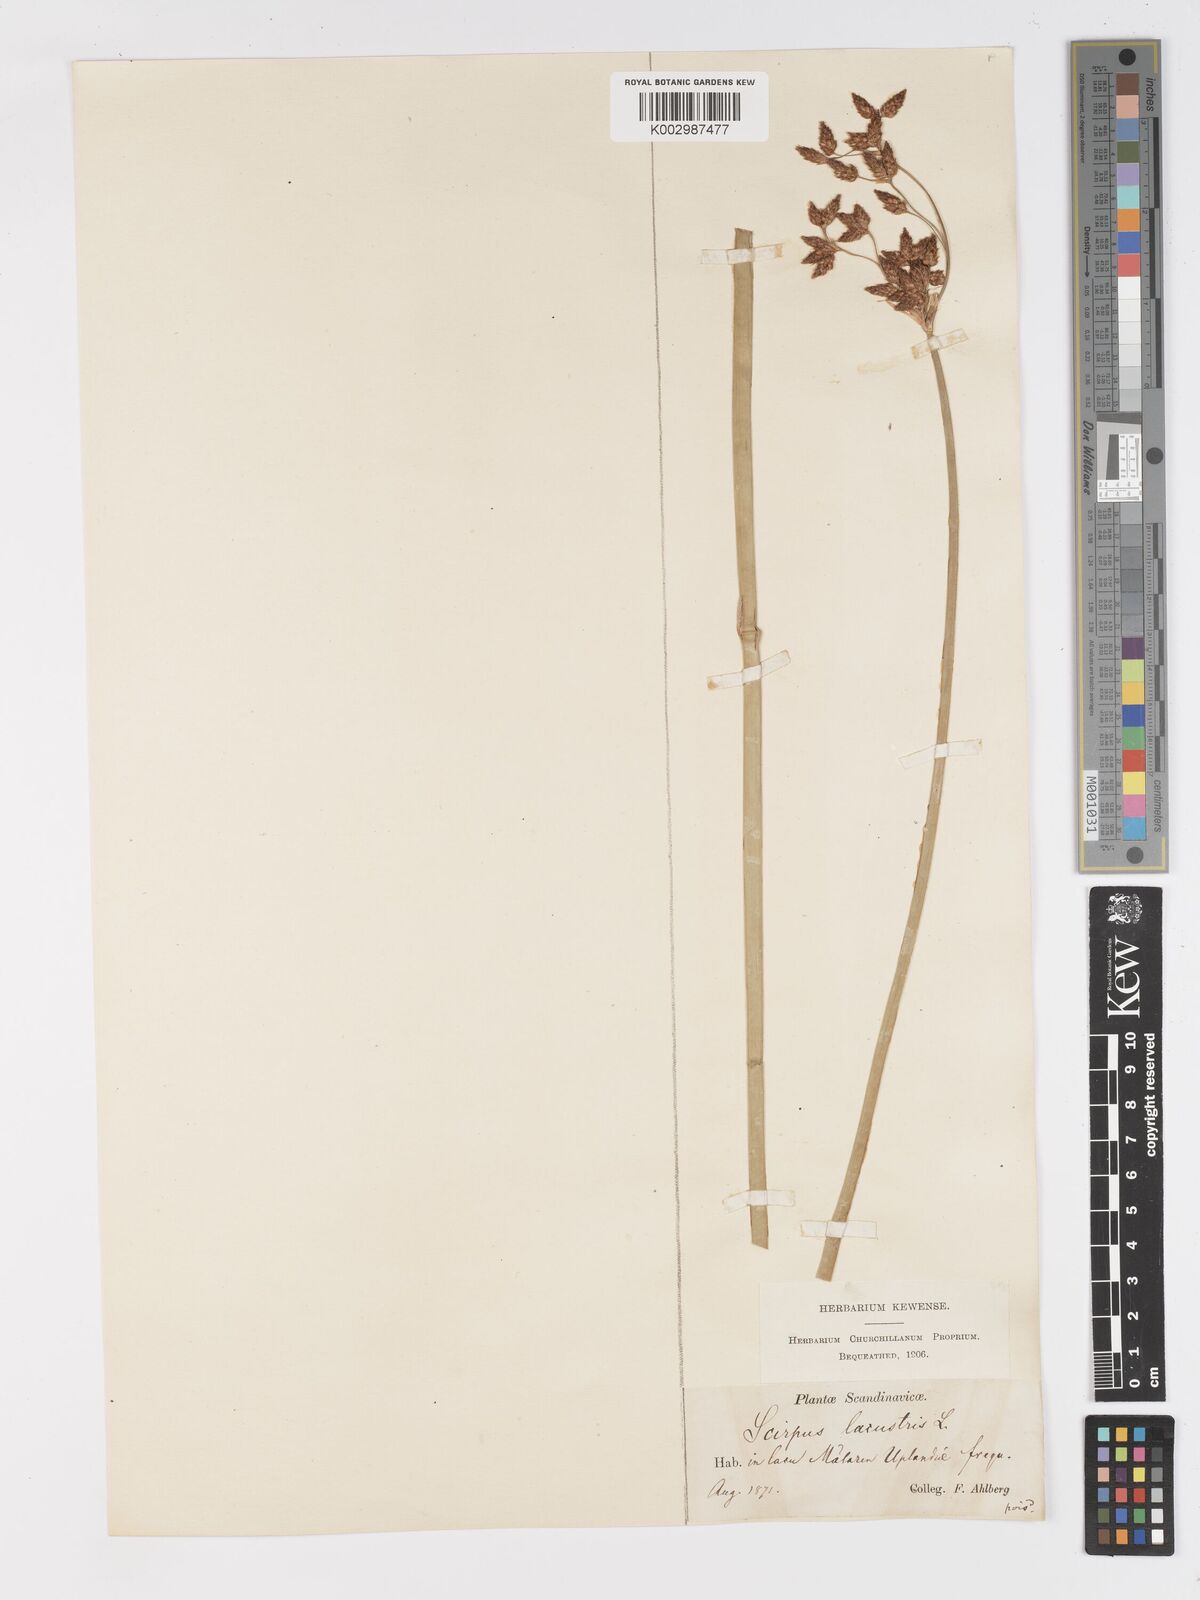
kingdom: Plantae
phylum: Tracheophyta
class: Liliopsida
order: Poales
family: Cyperaceae
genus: Schoenoplectus
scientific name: Schoenoplectus lacustris
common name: Common club-rush
